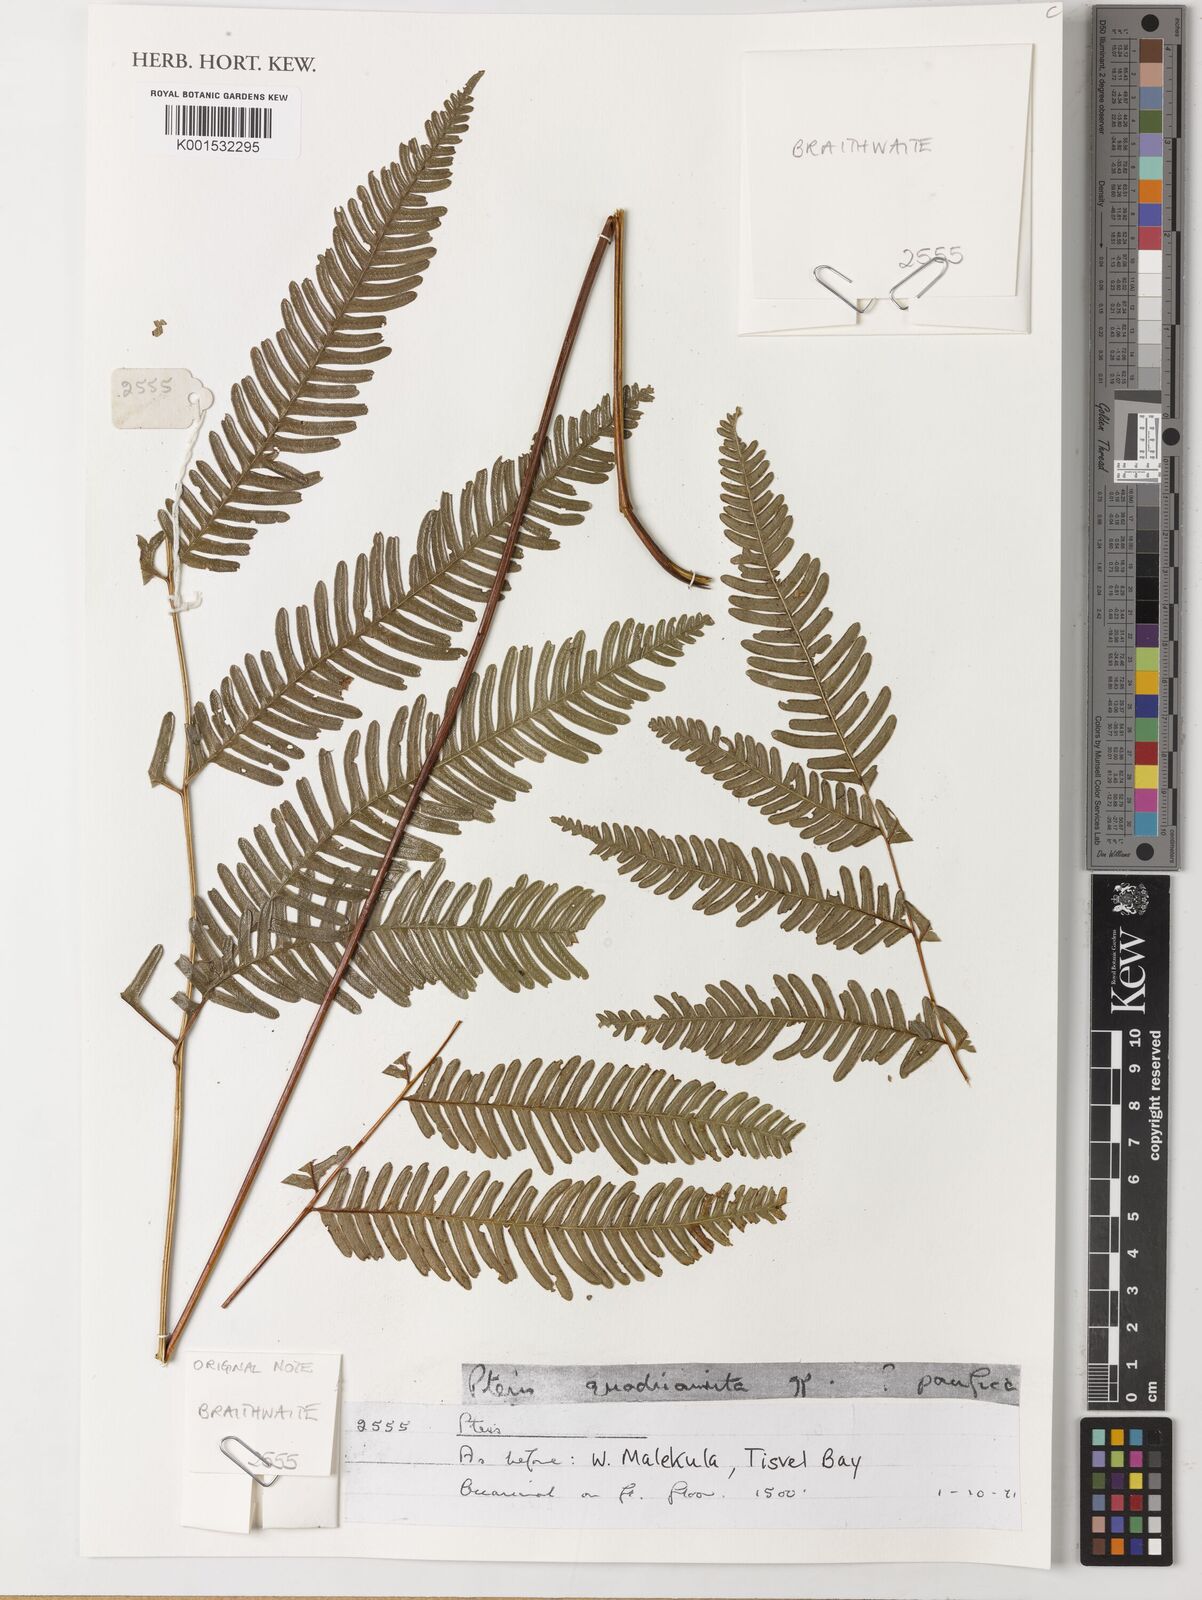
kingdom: Plantae
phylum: Tracheophyta
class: Polypodiopsida
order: Polypodiales
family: Pteridaceae
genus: Pteris
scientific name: Pteris
